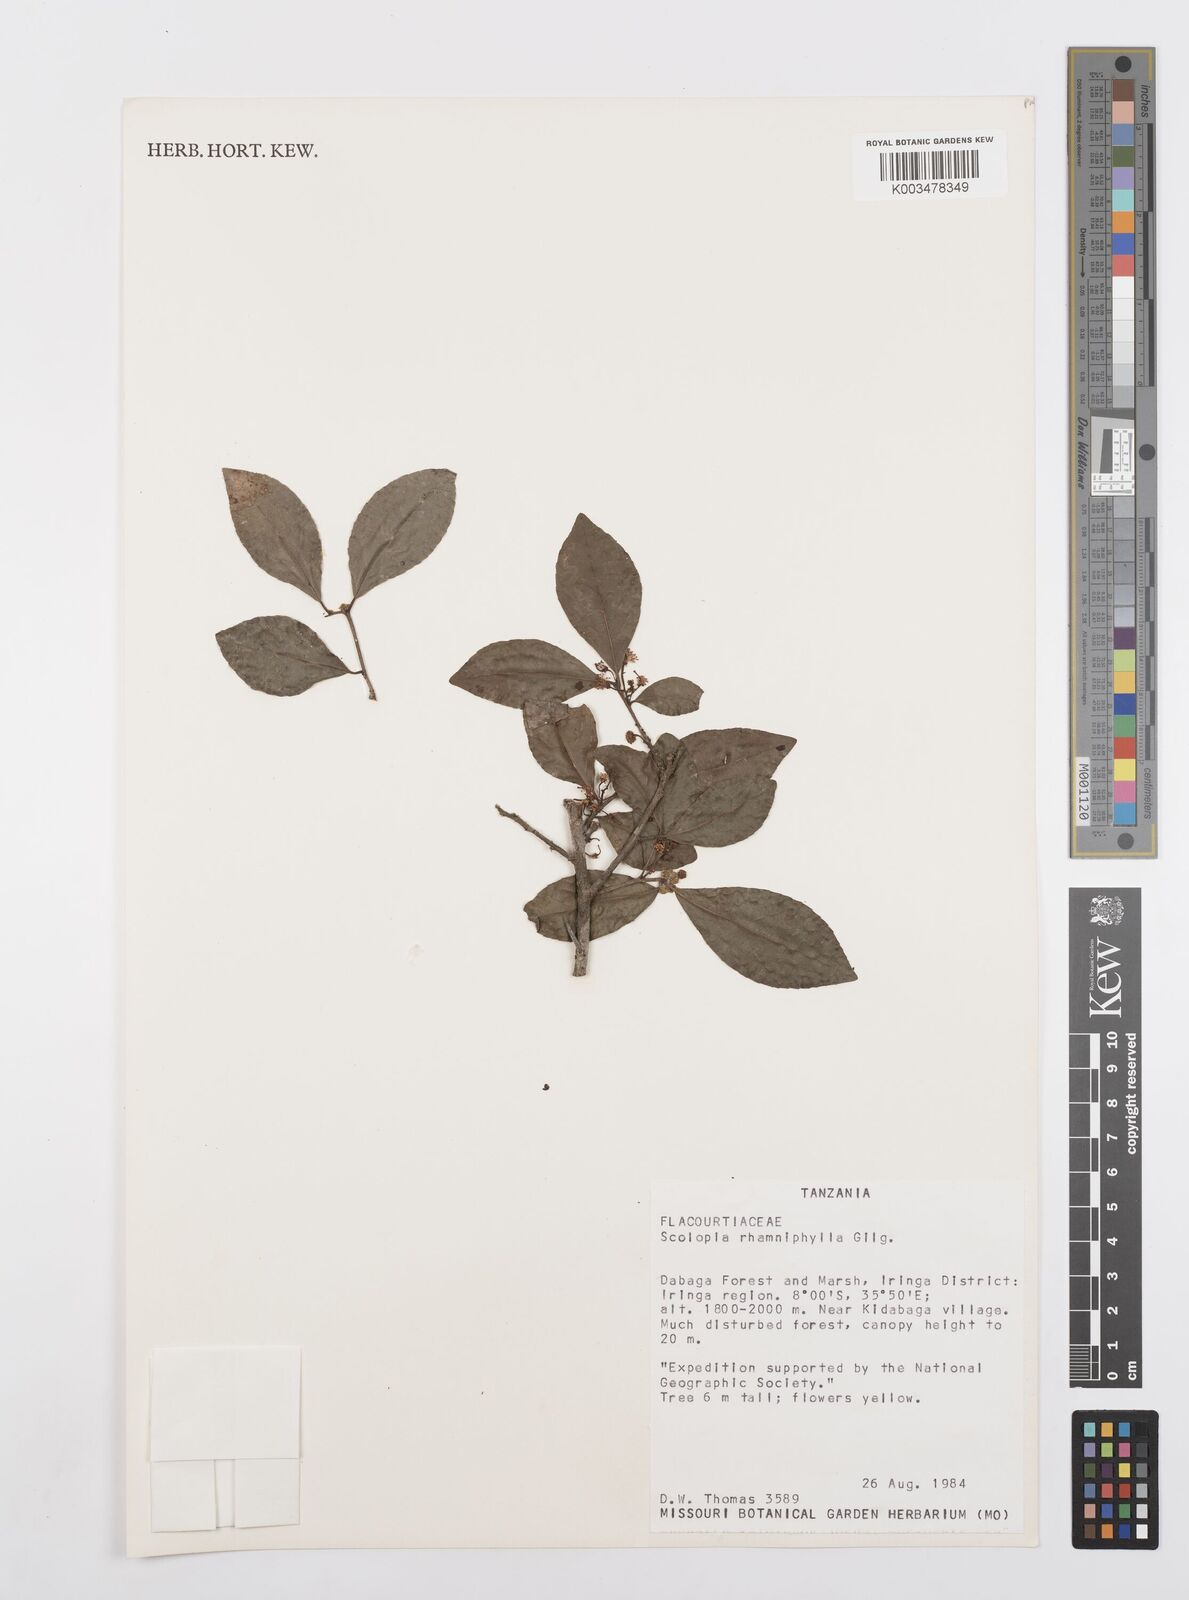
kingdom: Plantae
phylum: Tracheophyta
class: Magnoliopsida
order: Malpighiales
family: Salicaceae
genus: Scolopia
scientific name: Scolopia rhamniphylla
